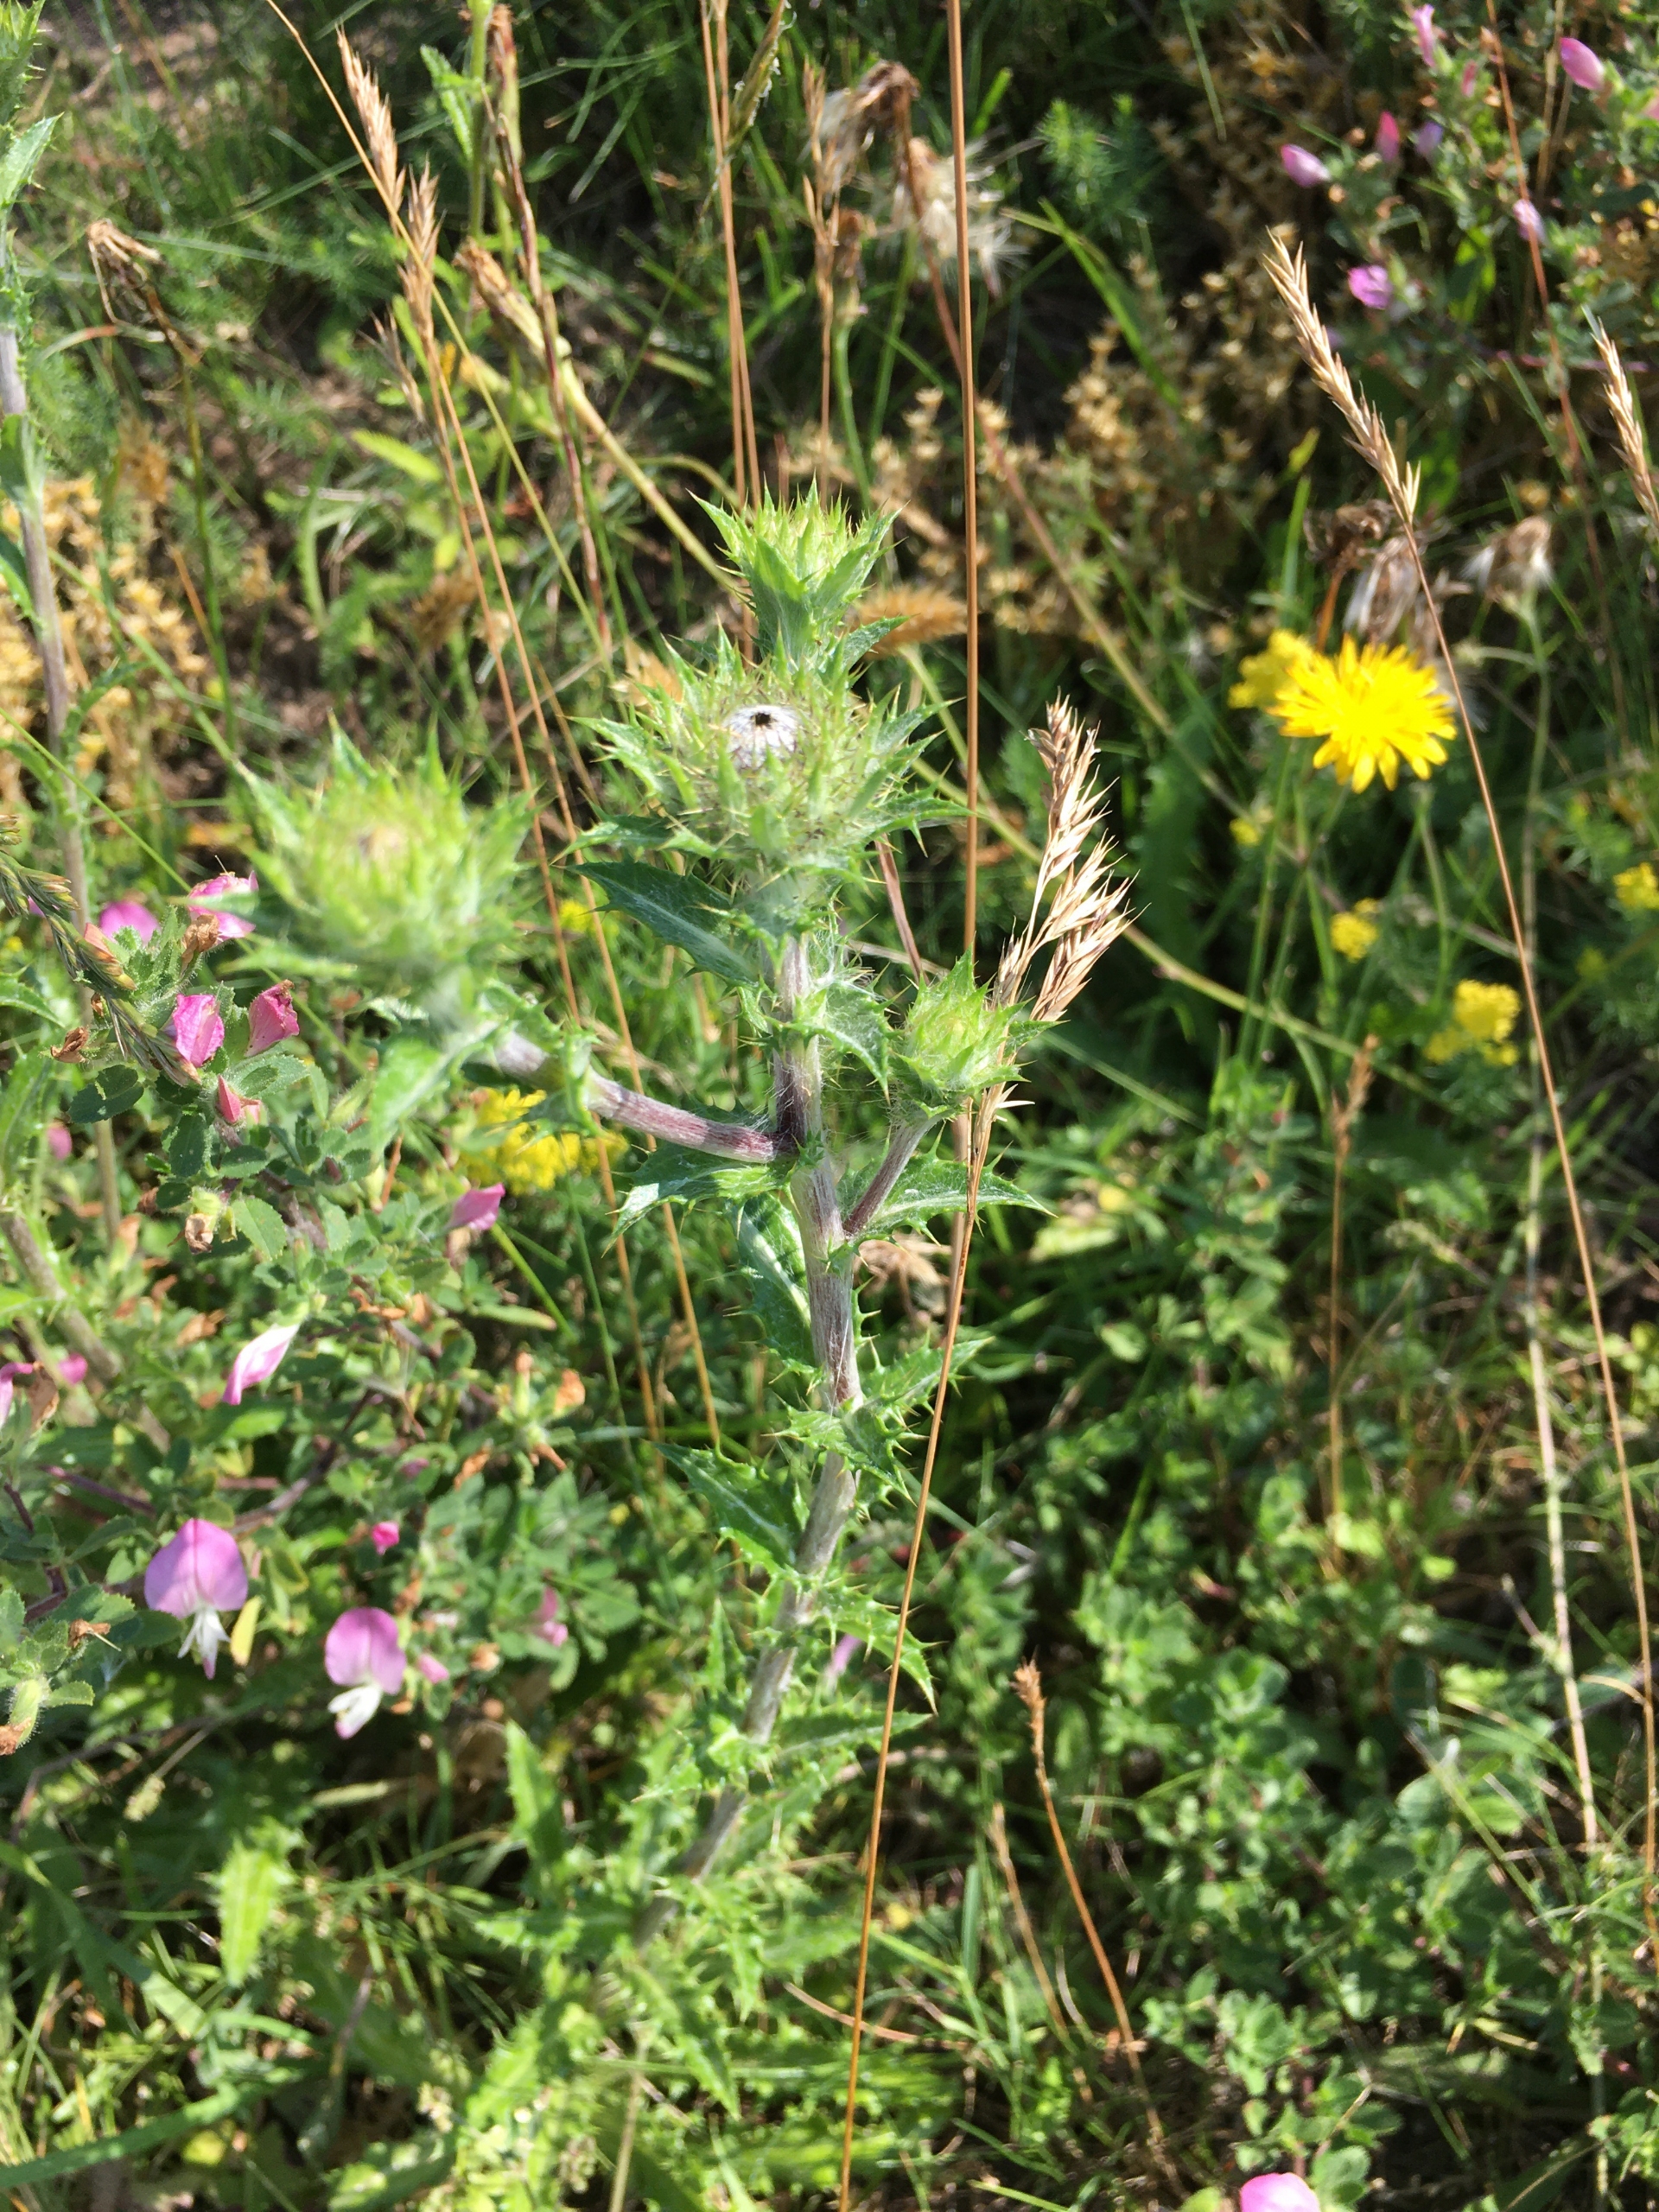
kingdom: Plantae
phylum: Tracheophyta
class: Magnoliopsida
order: Asterales
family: Asteraceae
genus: Carlina
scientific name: Carlina vulgaris
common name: Bakketidsel
